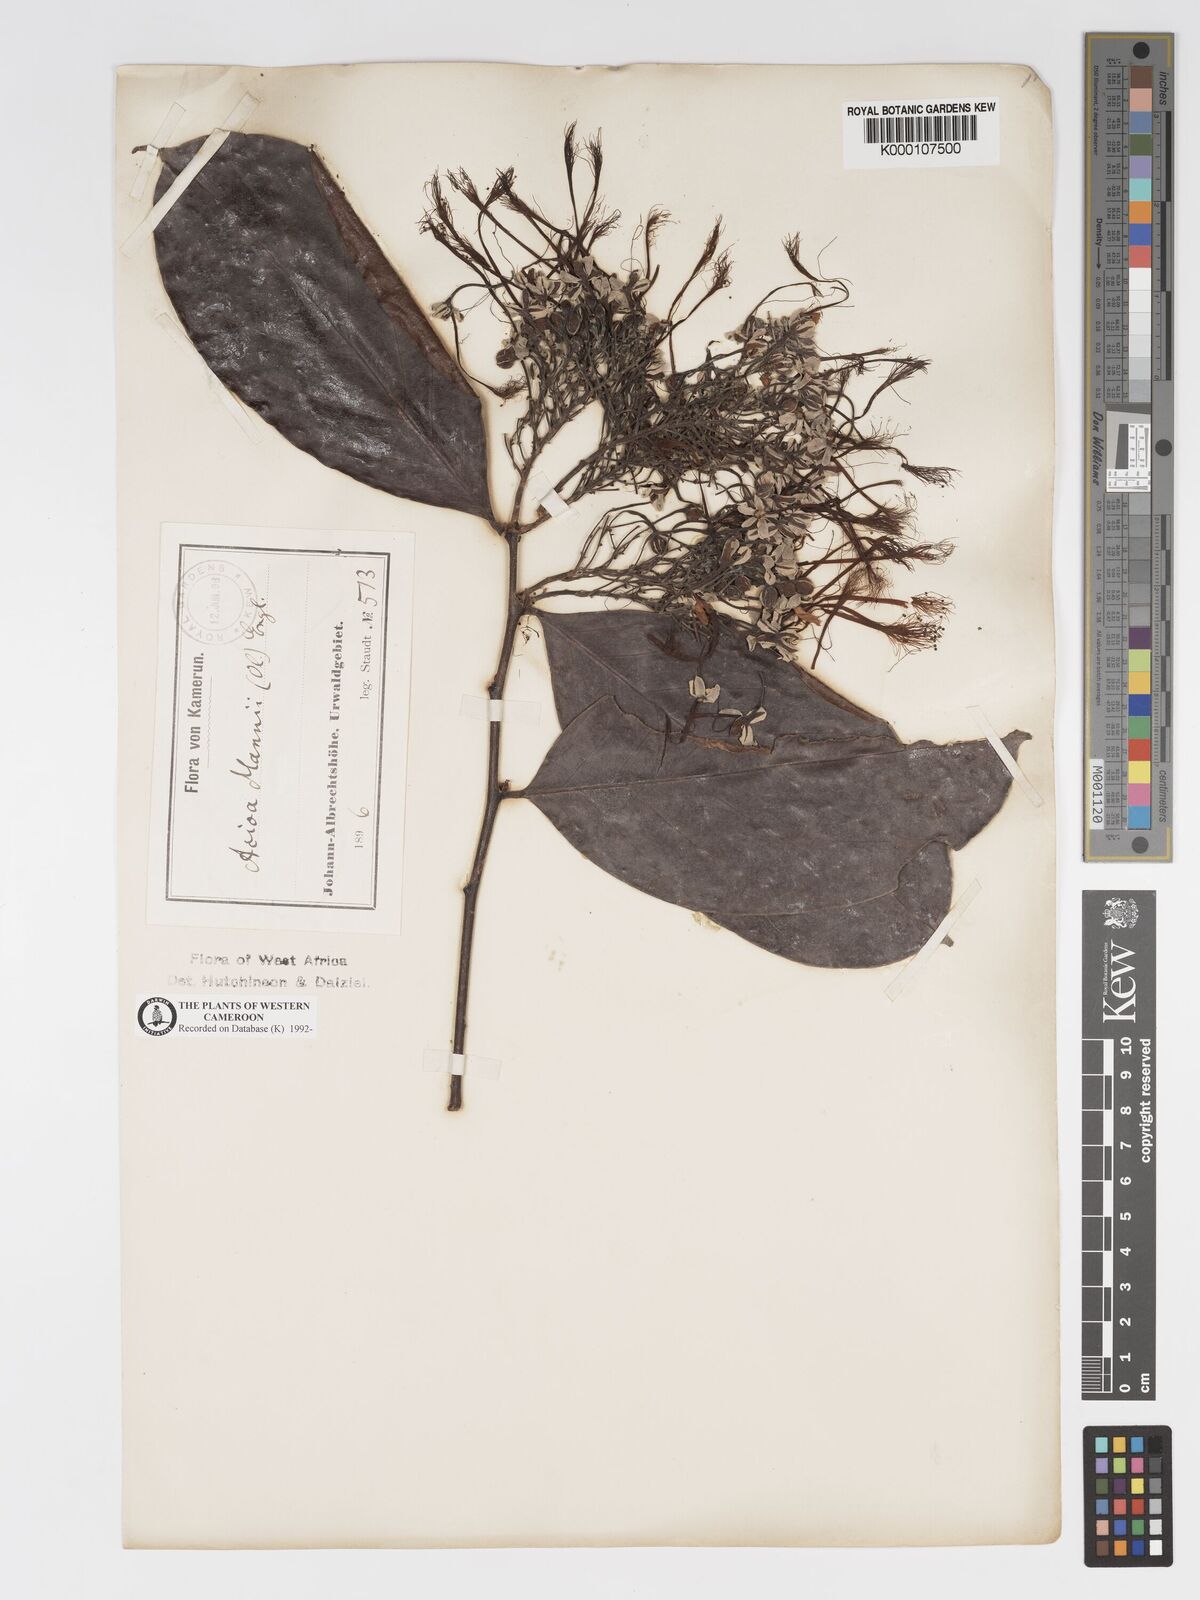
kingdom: Plantae
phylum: Tracheophyta
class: Magnoliopsida
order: Malpighiales
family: Chrysobalanaceae
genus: Dactyladenia
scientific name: Dactyladenia mannii
